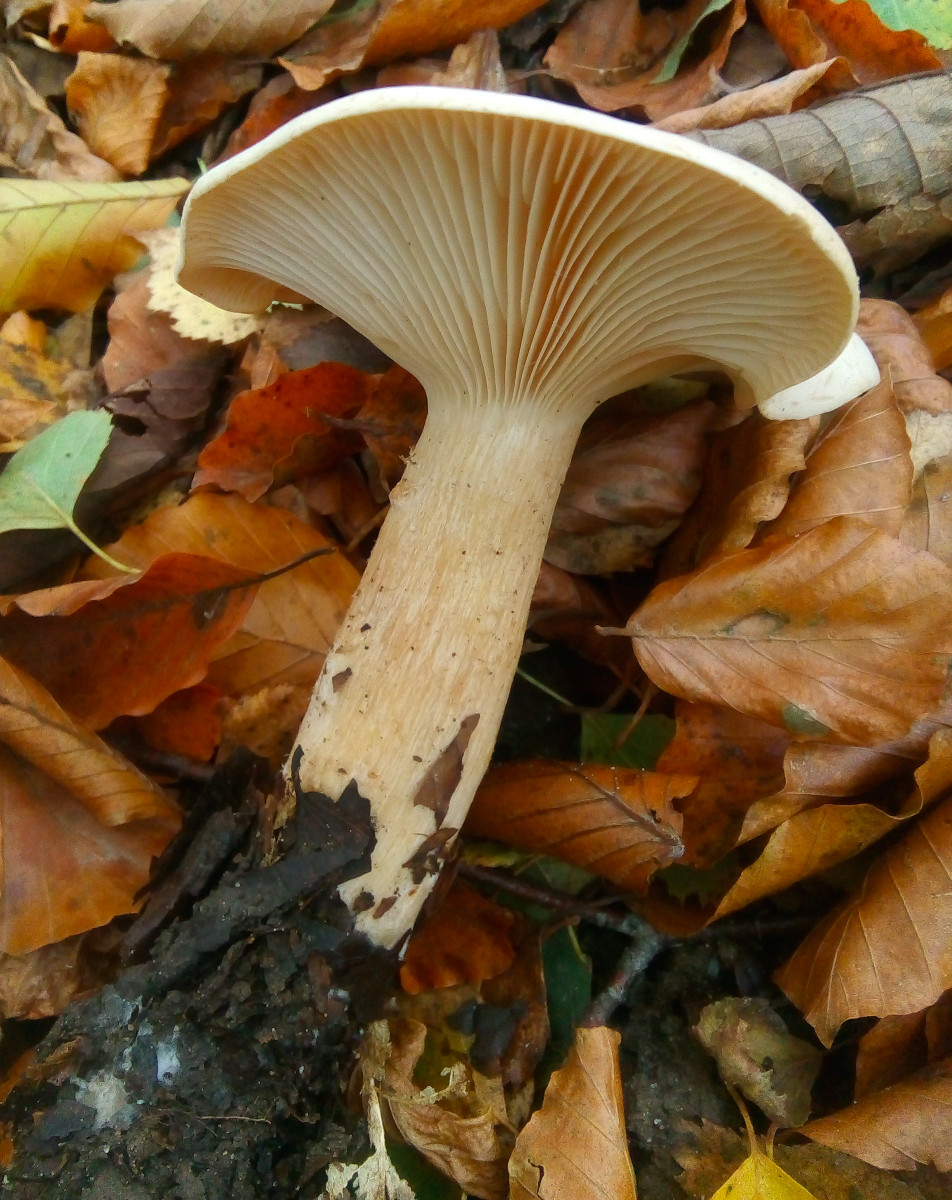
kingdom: Fungi
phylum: Basidiomycota
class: Agaricomycetes
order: Agaricales
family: Tricholomataceae
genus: Infundibulicybe
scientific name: Infundibulicybe geotropa
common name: stor tragthat
